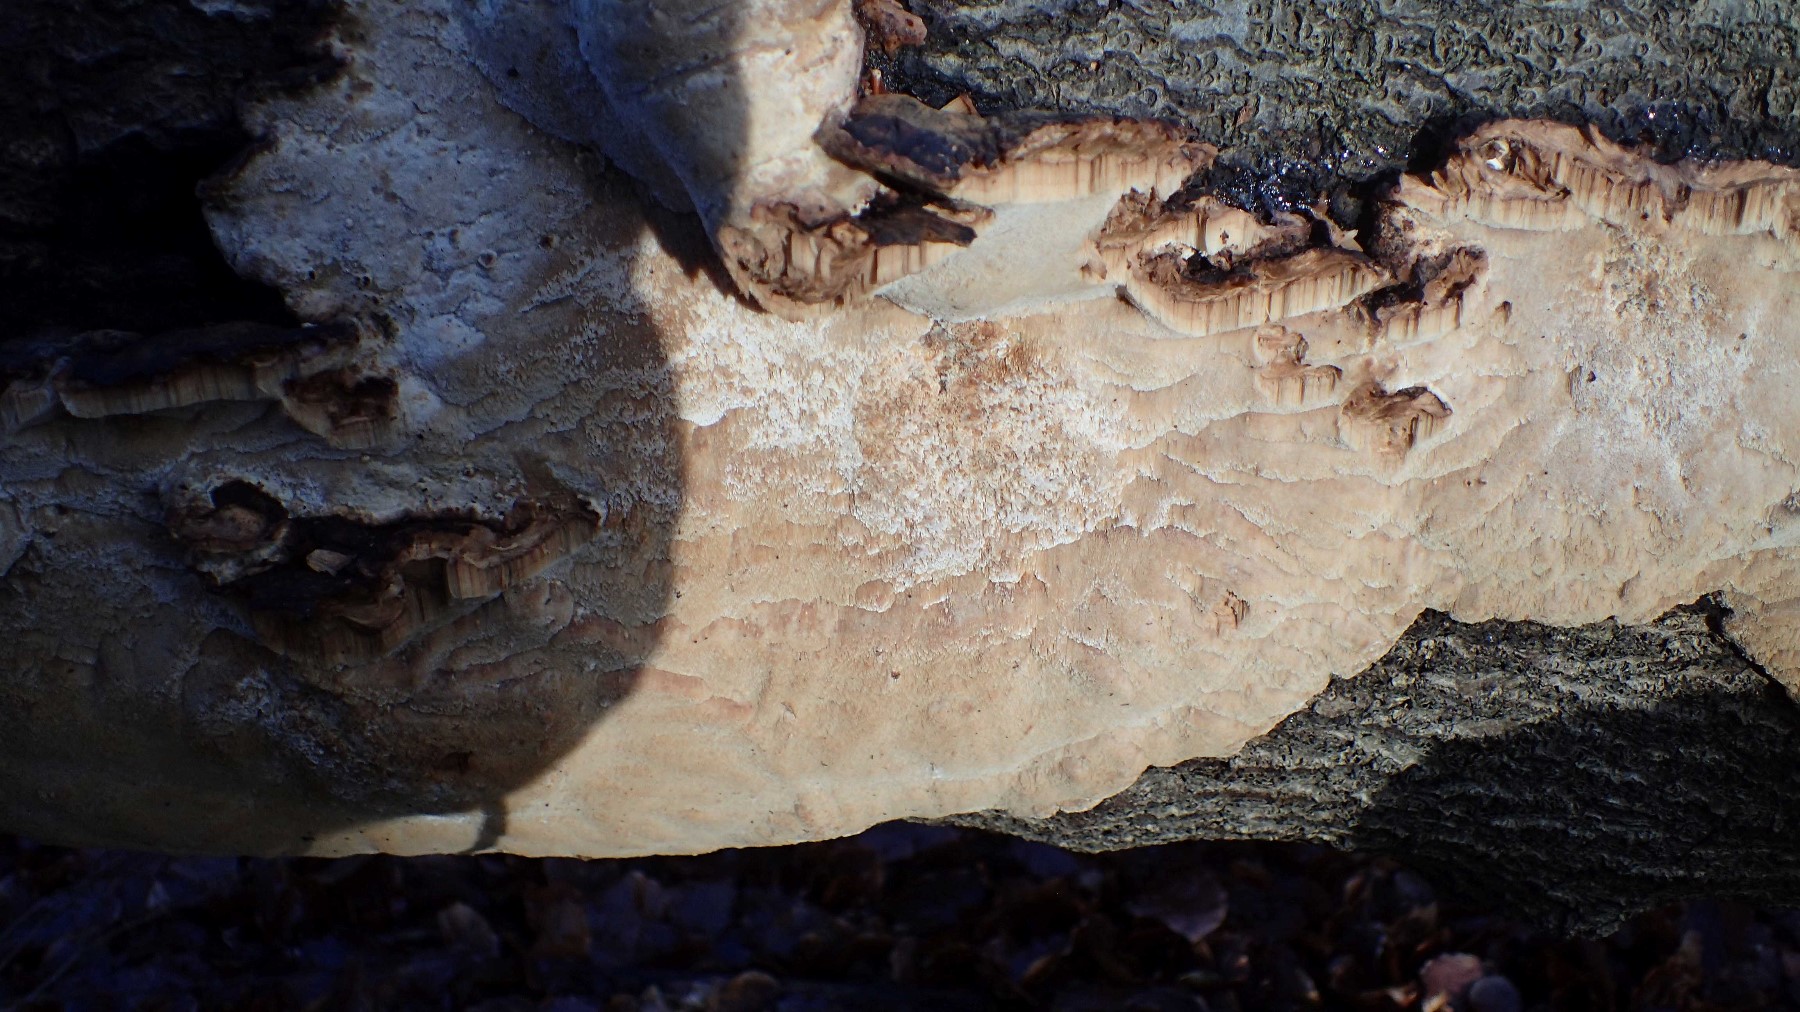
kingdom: Fungi
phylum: Basidiomycota
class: Agaricomycetes
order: Polyporales
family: Ischnodermataceae
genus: Ischnoderma
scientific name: Ischnoderma resinosum
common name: løv-tjæreporesvamp
